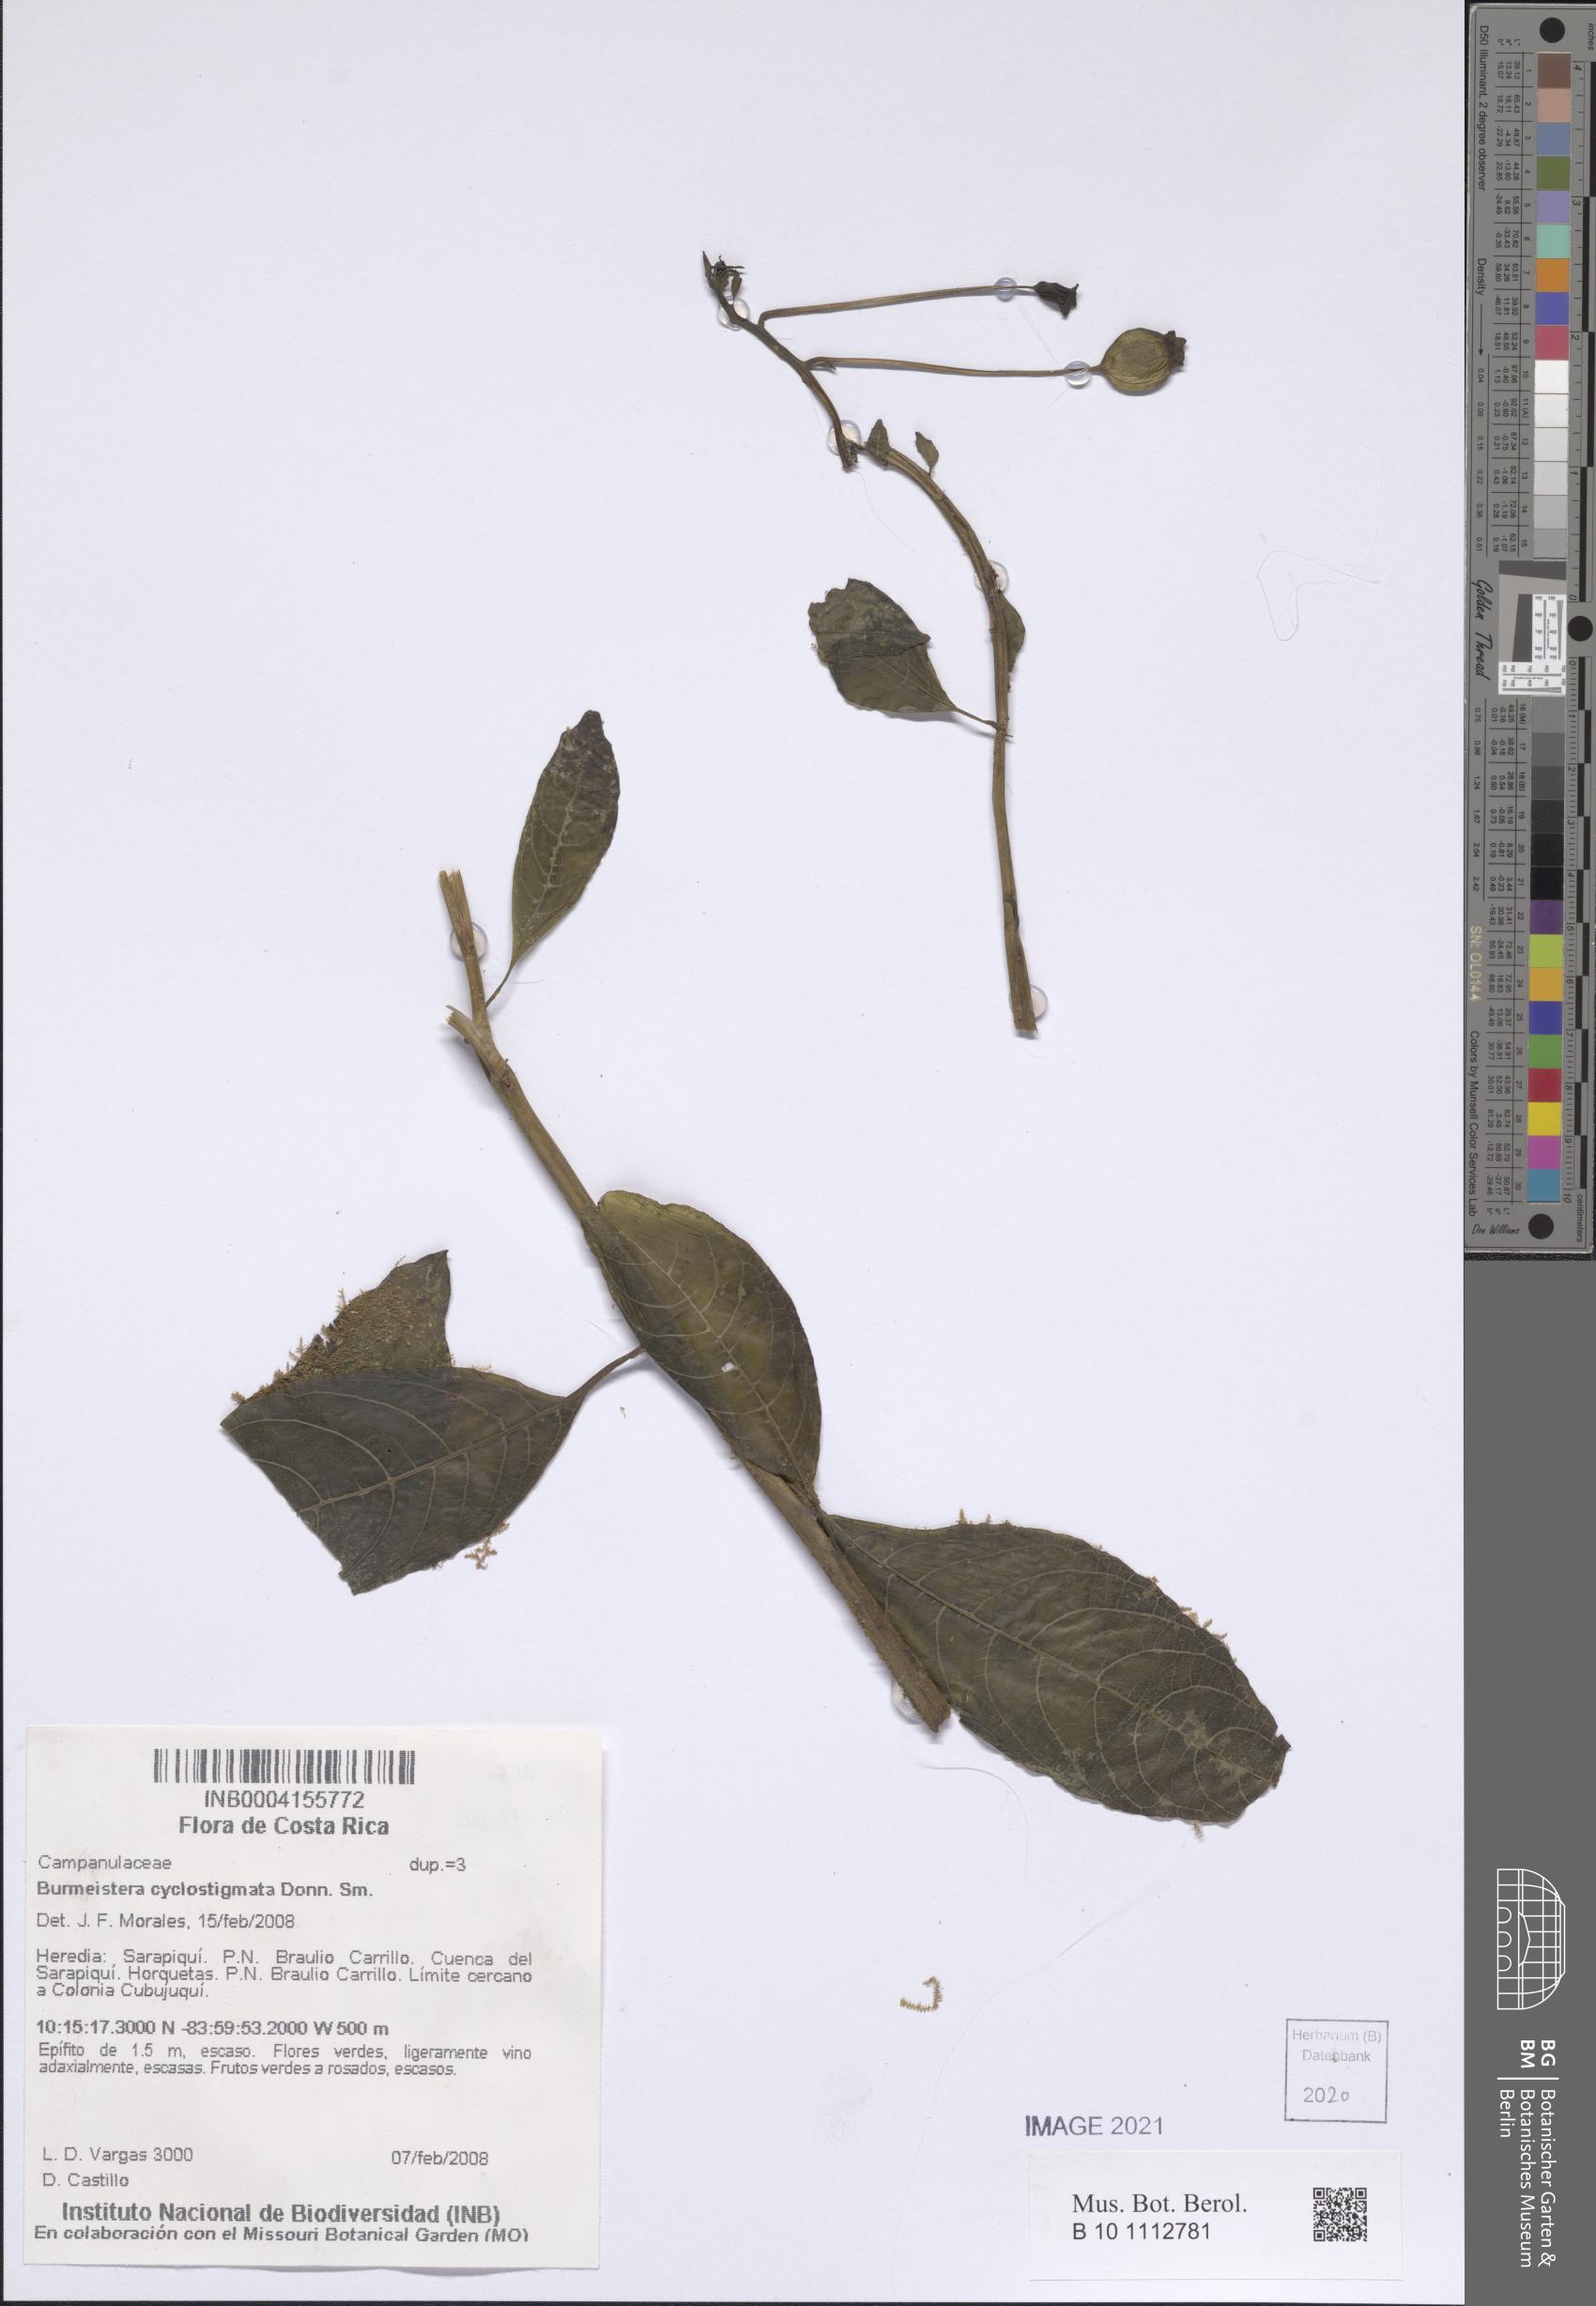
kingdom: Plantae
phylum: Tracheophyta
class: Magnoliopsida
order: Asterales
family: Campanulaceae
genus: Burmeistera
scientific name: Burmeistera cyclostigmata
